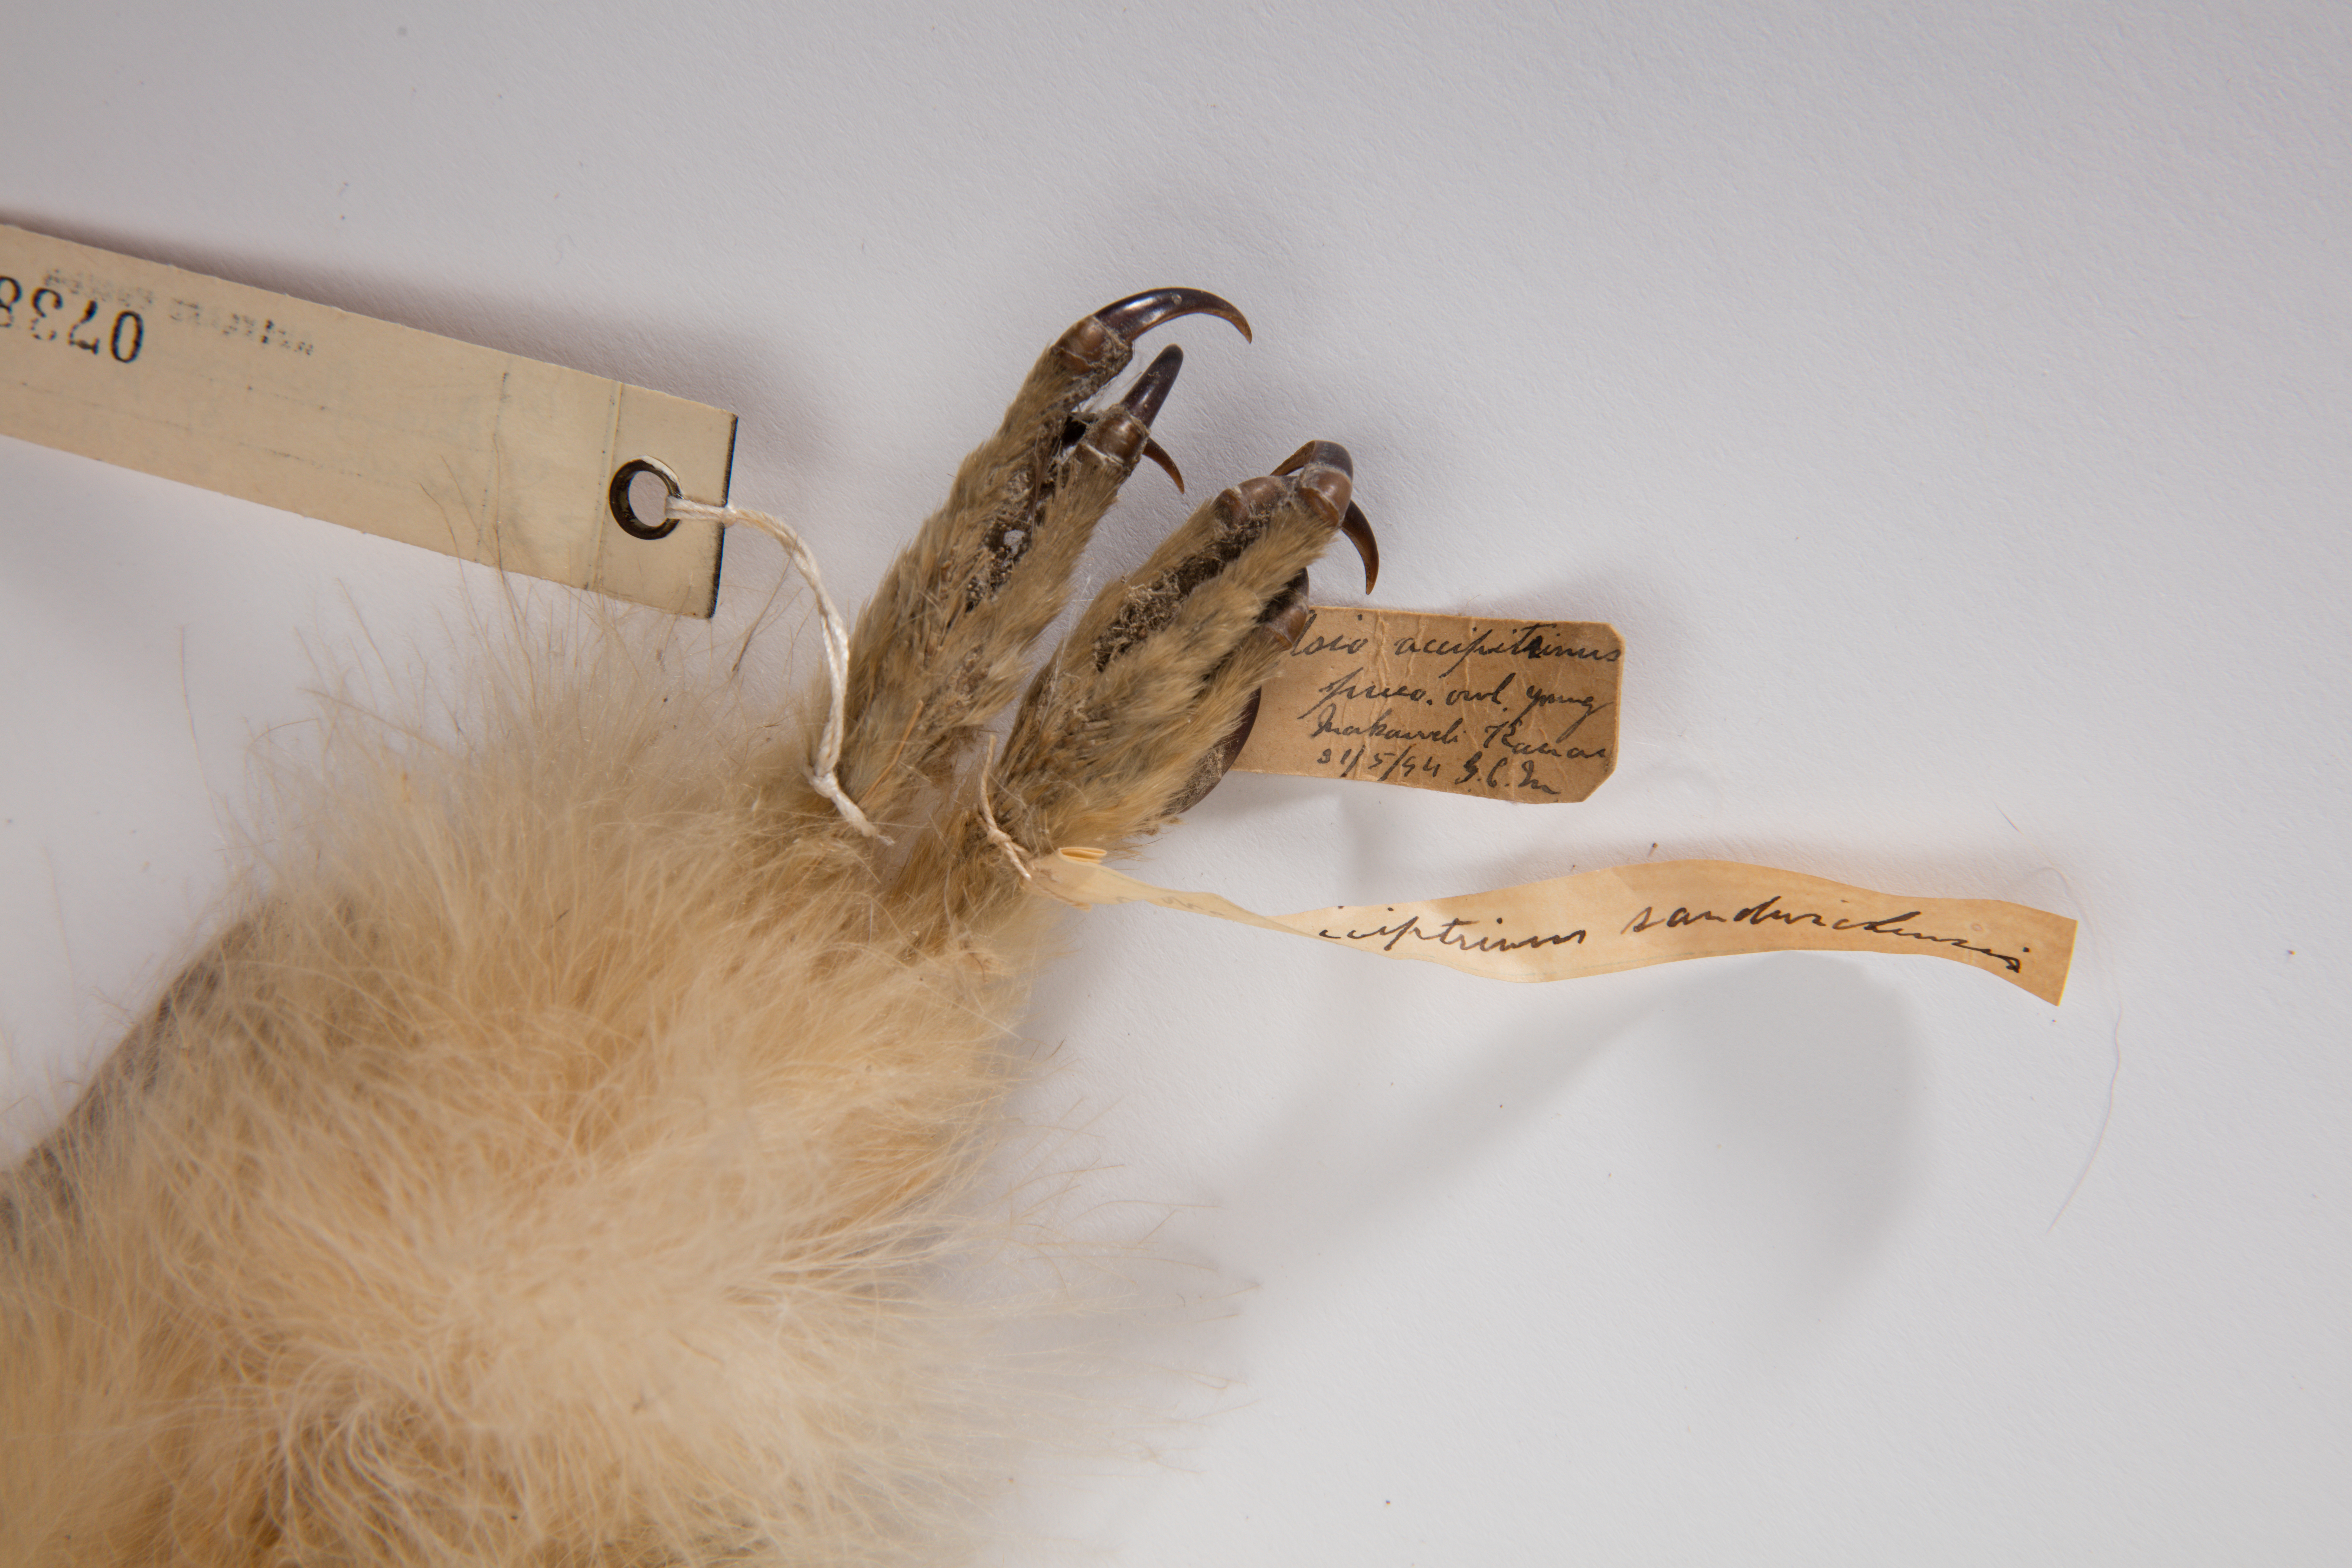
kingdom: Animalia
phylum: Chordata
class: Aves
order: Strigiformes
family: Strigidae
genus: Asio
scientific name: Asio flammeus
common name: Short-eared owl
